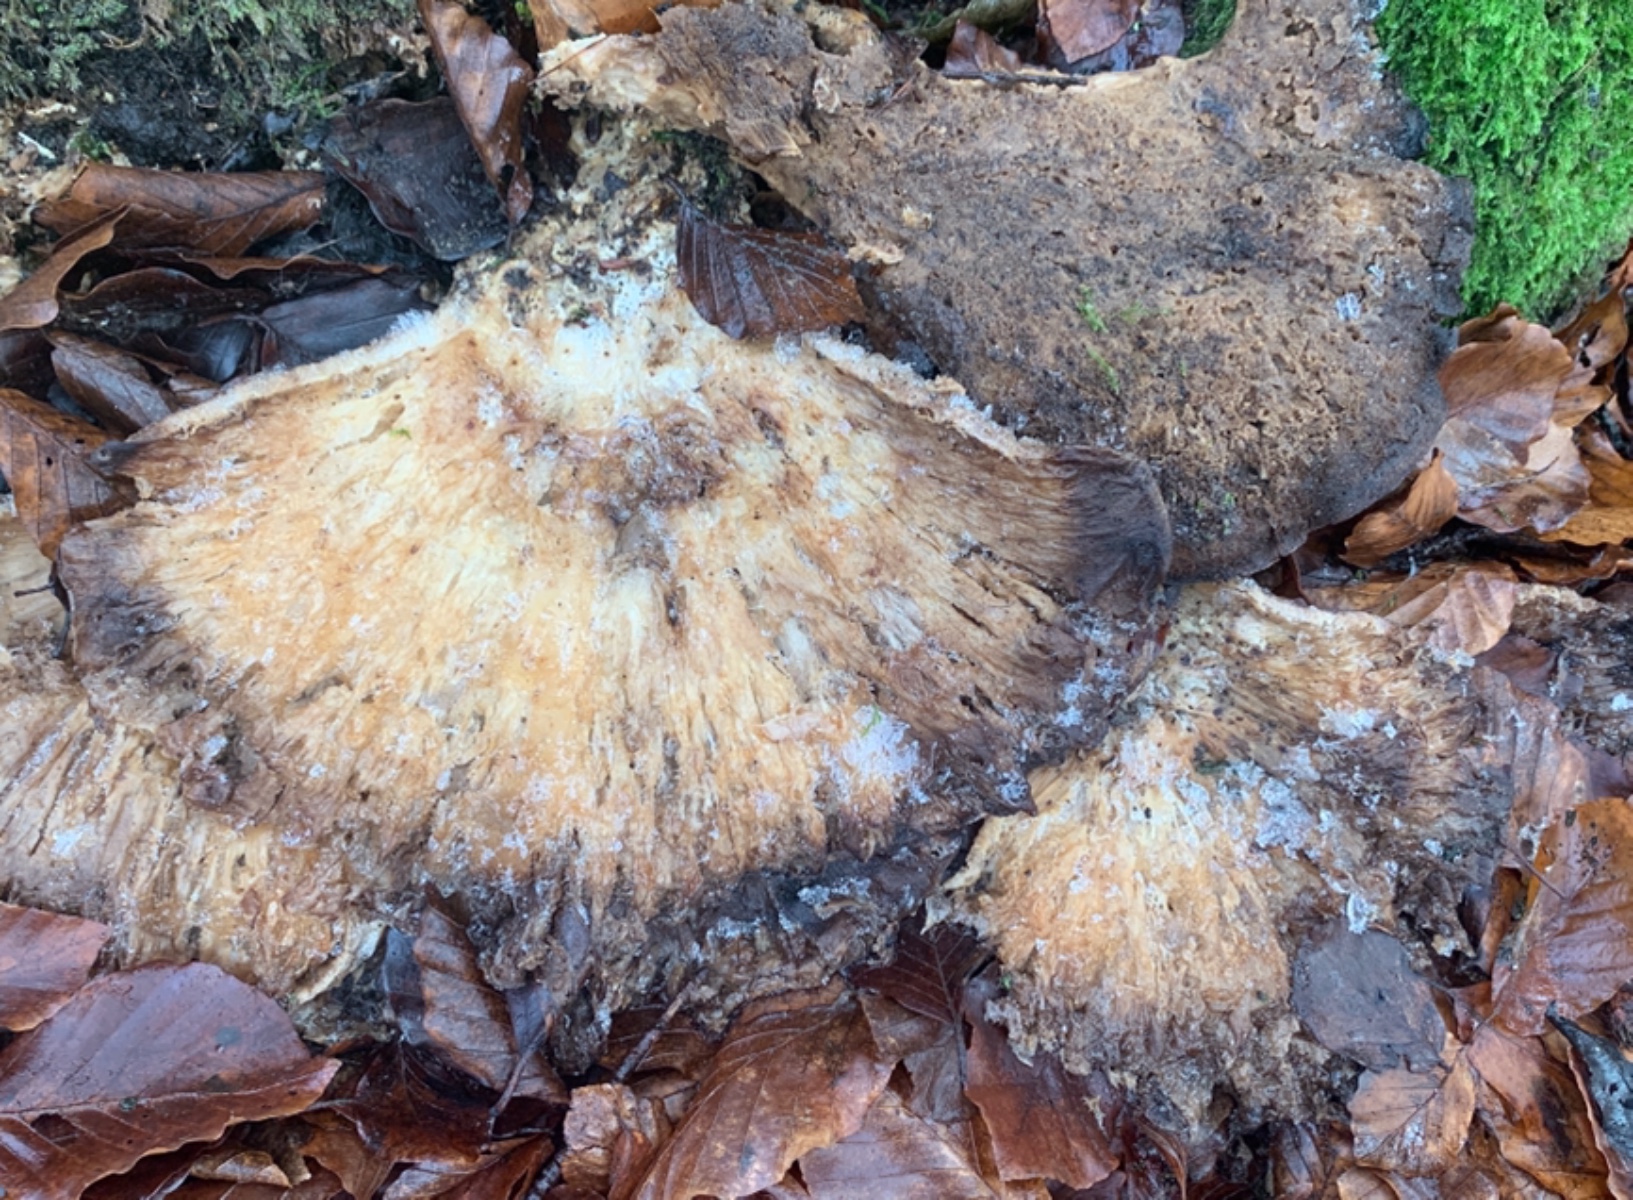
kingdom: Fungi
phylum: Basidiomycota
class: Agaricomycetes
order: Polyporales
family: Meripilaceae
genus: Meripilus
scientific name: Meripilus giganteus
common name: kæmpeporesvamp
